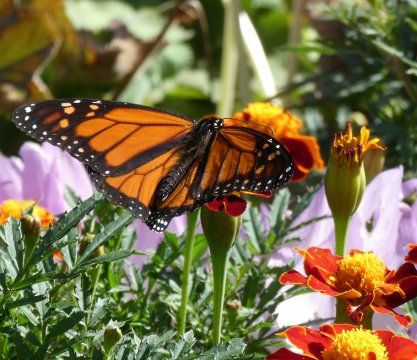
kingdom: Animalia
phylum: Arthropoda
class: Insecta
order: Lepidoptera
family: Nymphalidae
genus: Danaus
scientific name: Danaus plexippus
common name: Monarch
